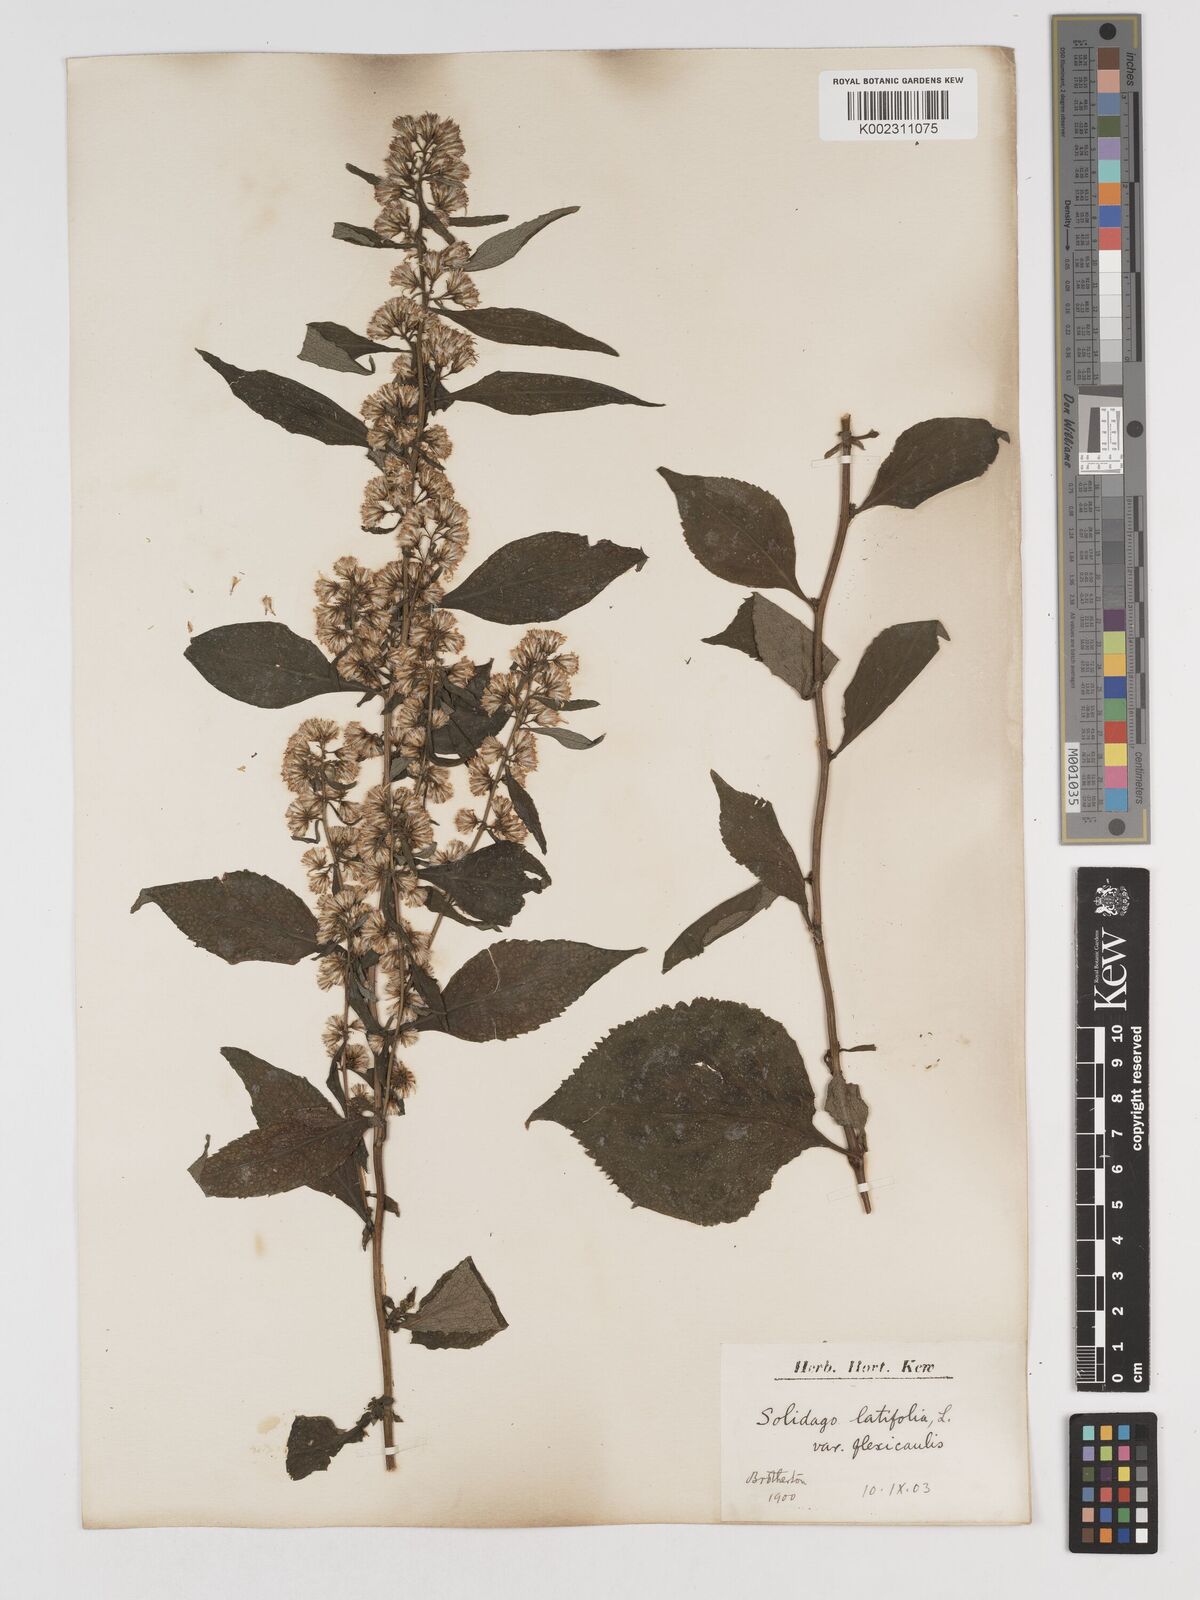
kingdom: Plantae
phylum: Tracheophyta
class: Magnoliopsida
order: Asterales
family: Asteraceae
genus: Solidago
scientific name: Solidago flexicaulis
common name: Zig-zag goldenrod
